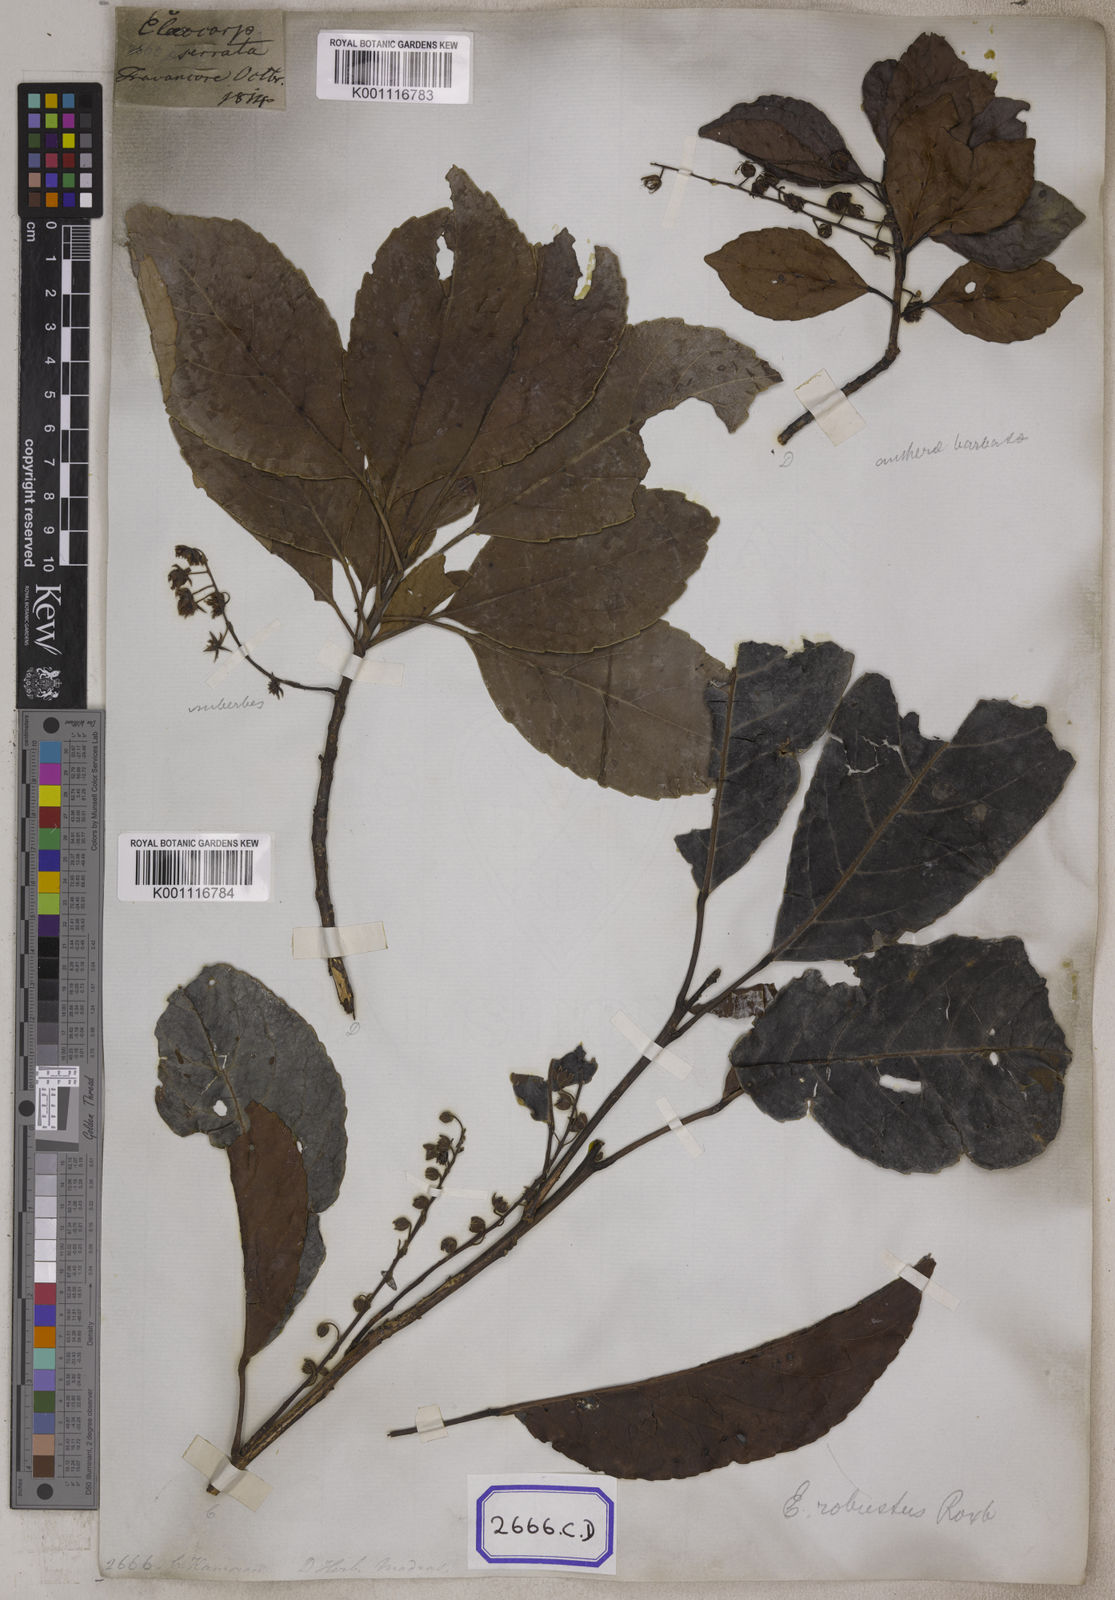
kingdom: Plantae
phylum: Tracheophyta
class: Magnoliopsida
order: Oxalidales
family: Elaeocarpaceae
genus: Elaeocarpus
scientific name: Elaeocarpus serratus
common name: Ceylon-olive
